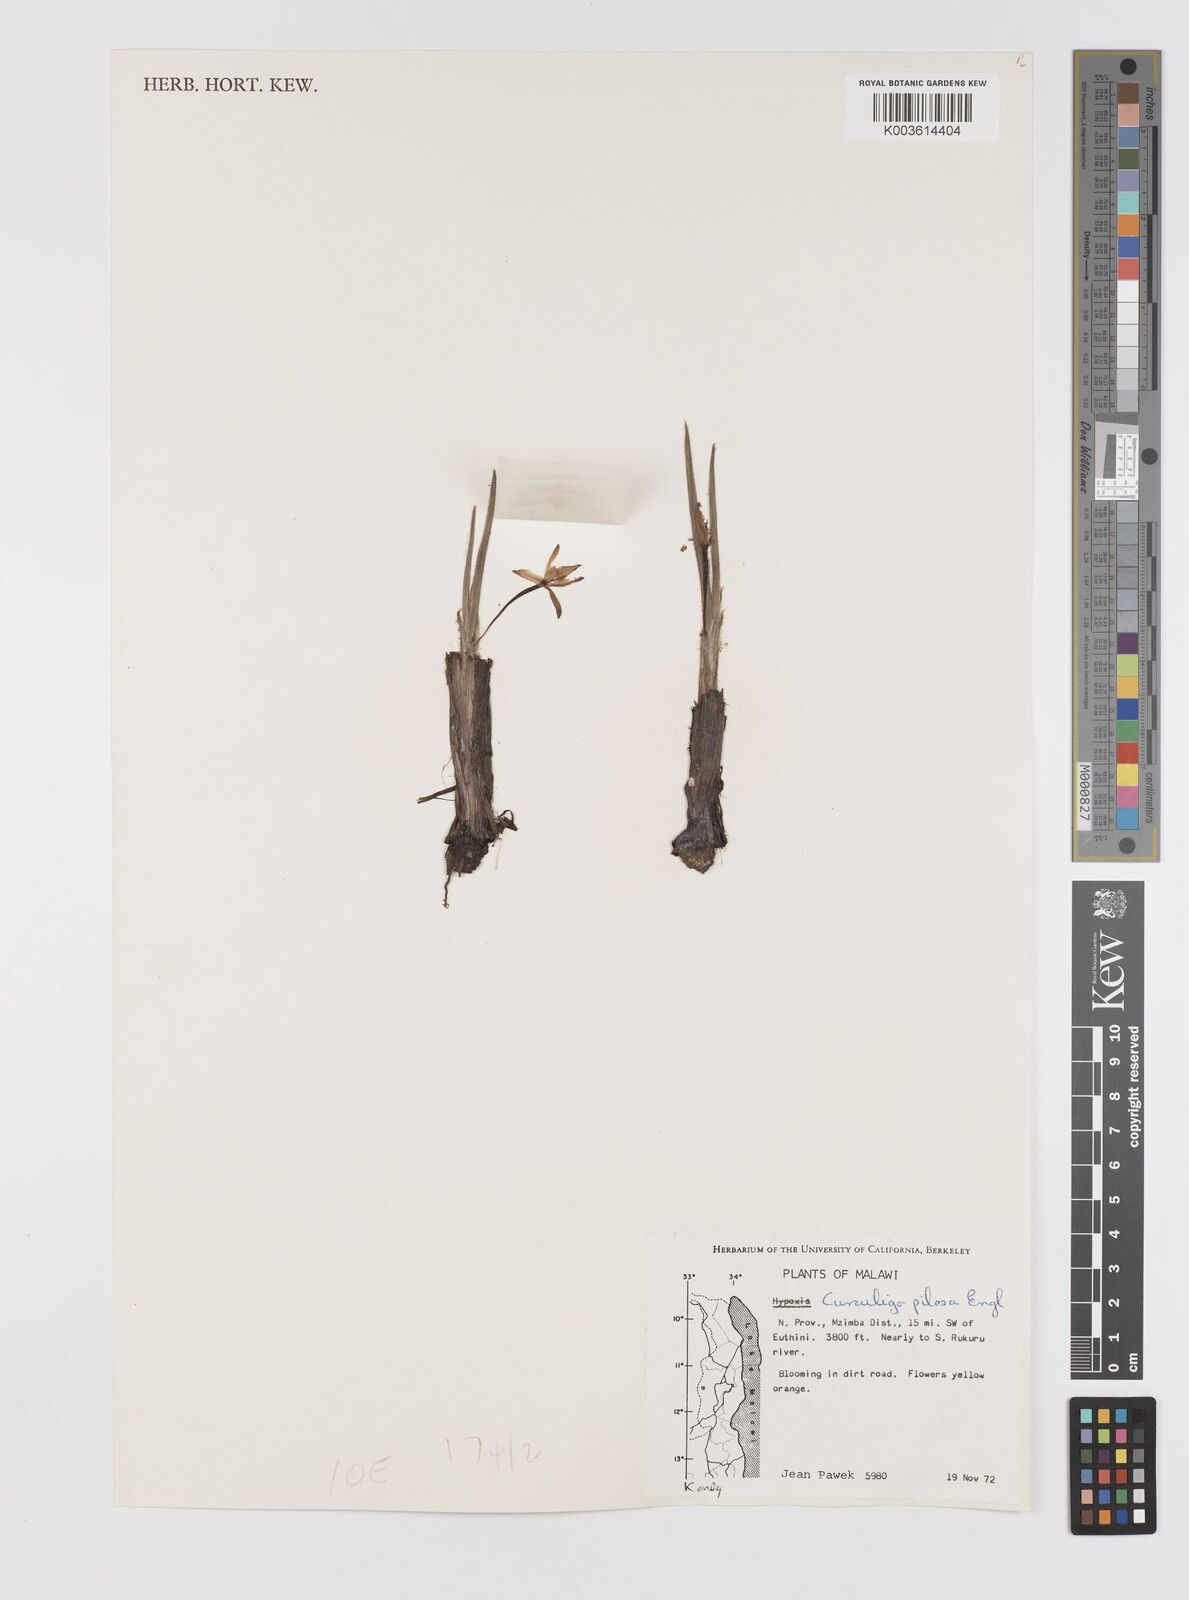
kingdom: Plantae
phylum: Tracheophyta
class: Liliopsida
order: Asparagales
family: Hypoxidaceae
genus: Curculigo
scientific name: Curculigo pilosa
